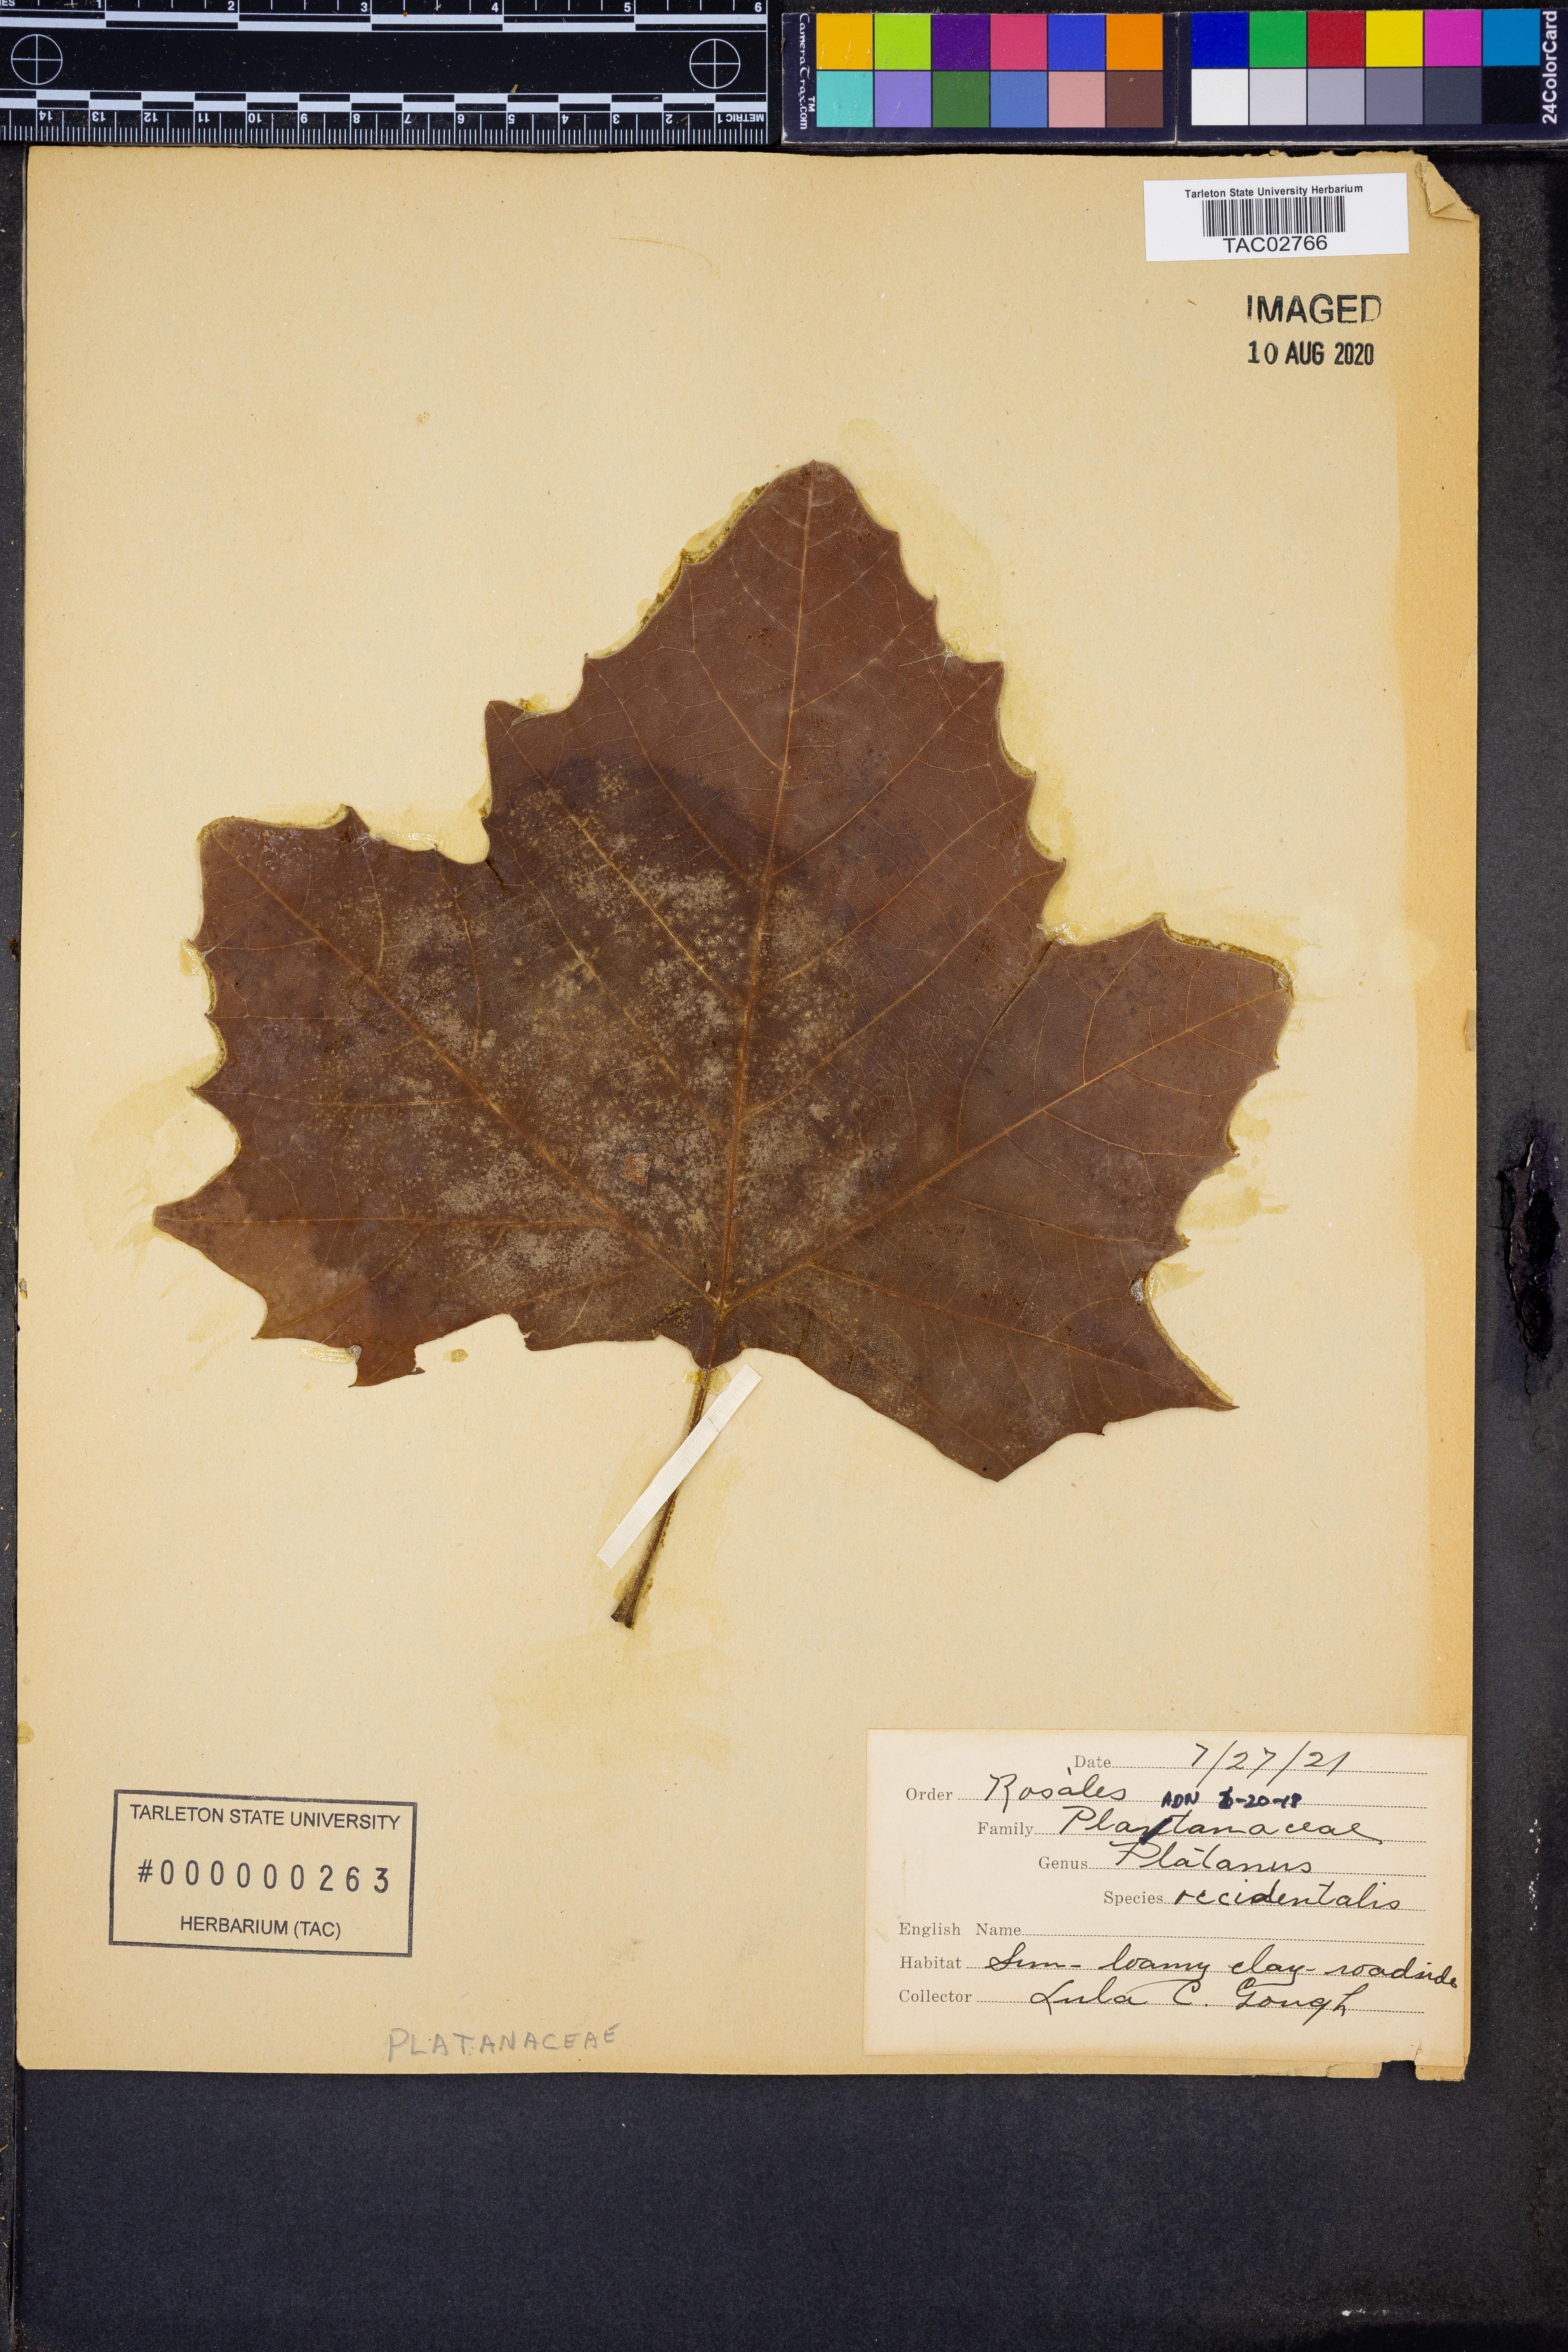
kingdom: Plantae
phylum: Tracheophyta
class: Magnoliopsida
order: Proteales
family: Platanaceae
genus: Platanus
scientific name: Platanus occidentalis
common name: American sycamore
